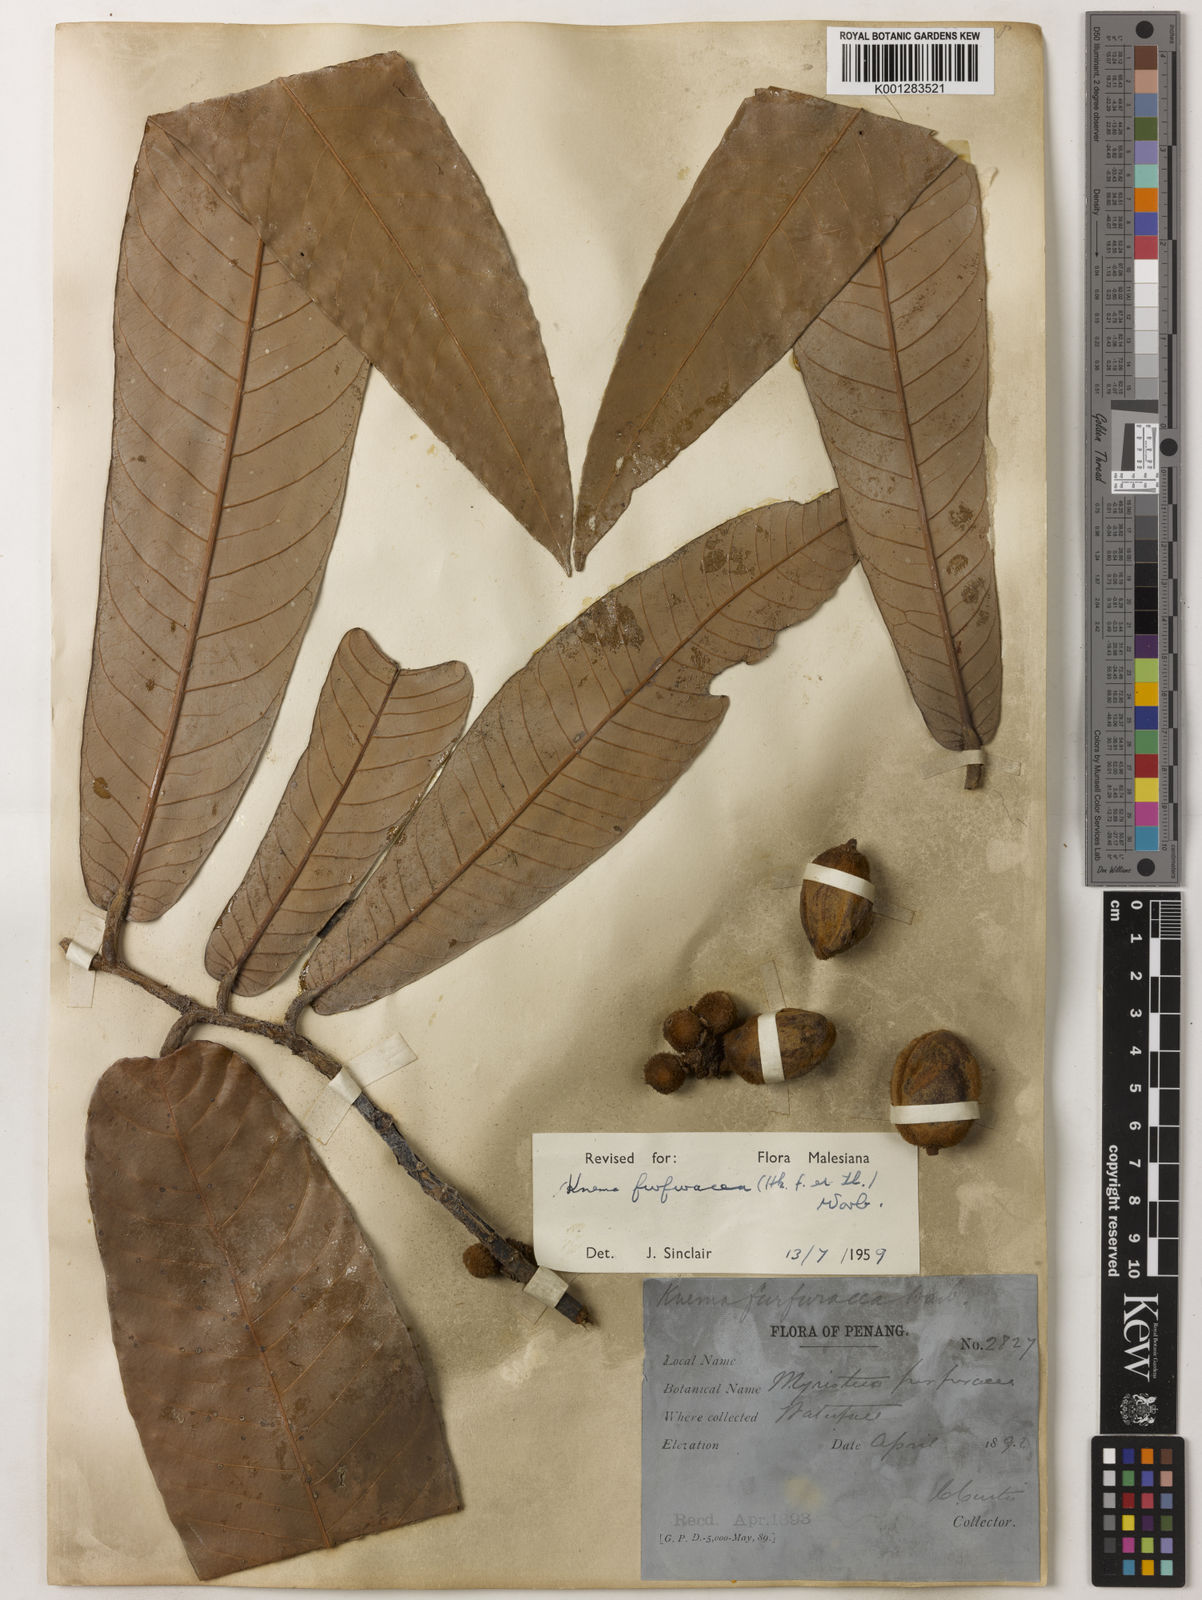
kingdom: Plantae
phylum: Tracheophyta
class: Magnoliopsida
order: Magnoliales
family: Myristicaceae
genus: Knema
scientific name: Knema furfuracea
